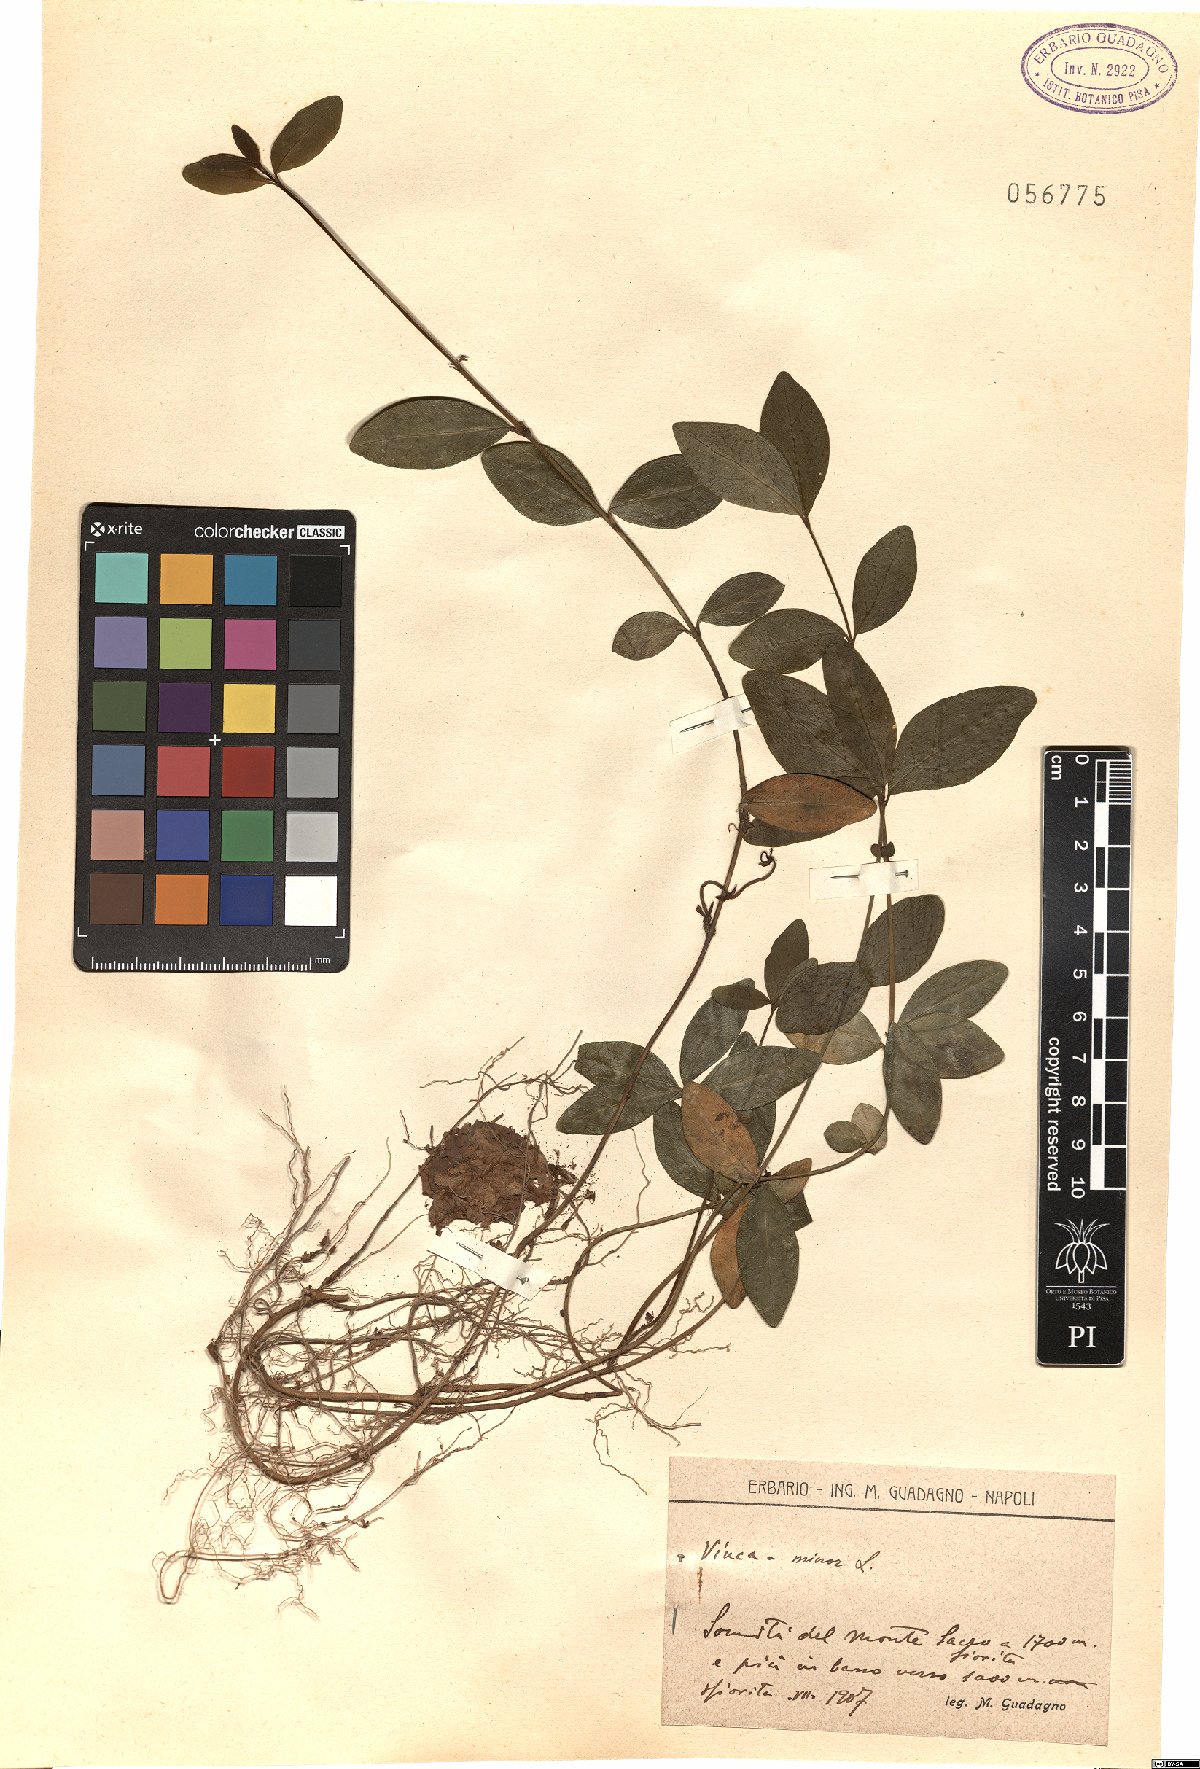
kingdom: Plantae
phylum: Tracheophyta
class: Magnoliopsida
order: Gentianales
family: Apocynaceae
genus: Vinca
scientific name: Vinca minor
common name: Lesser periwinkle
